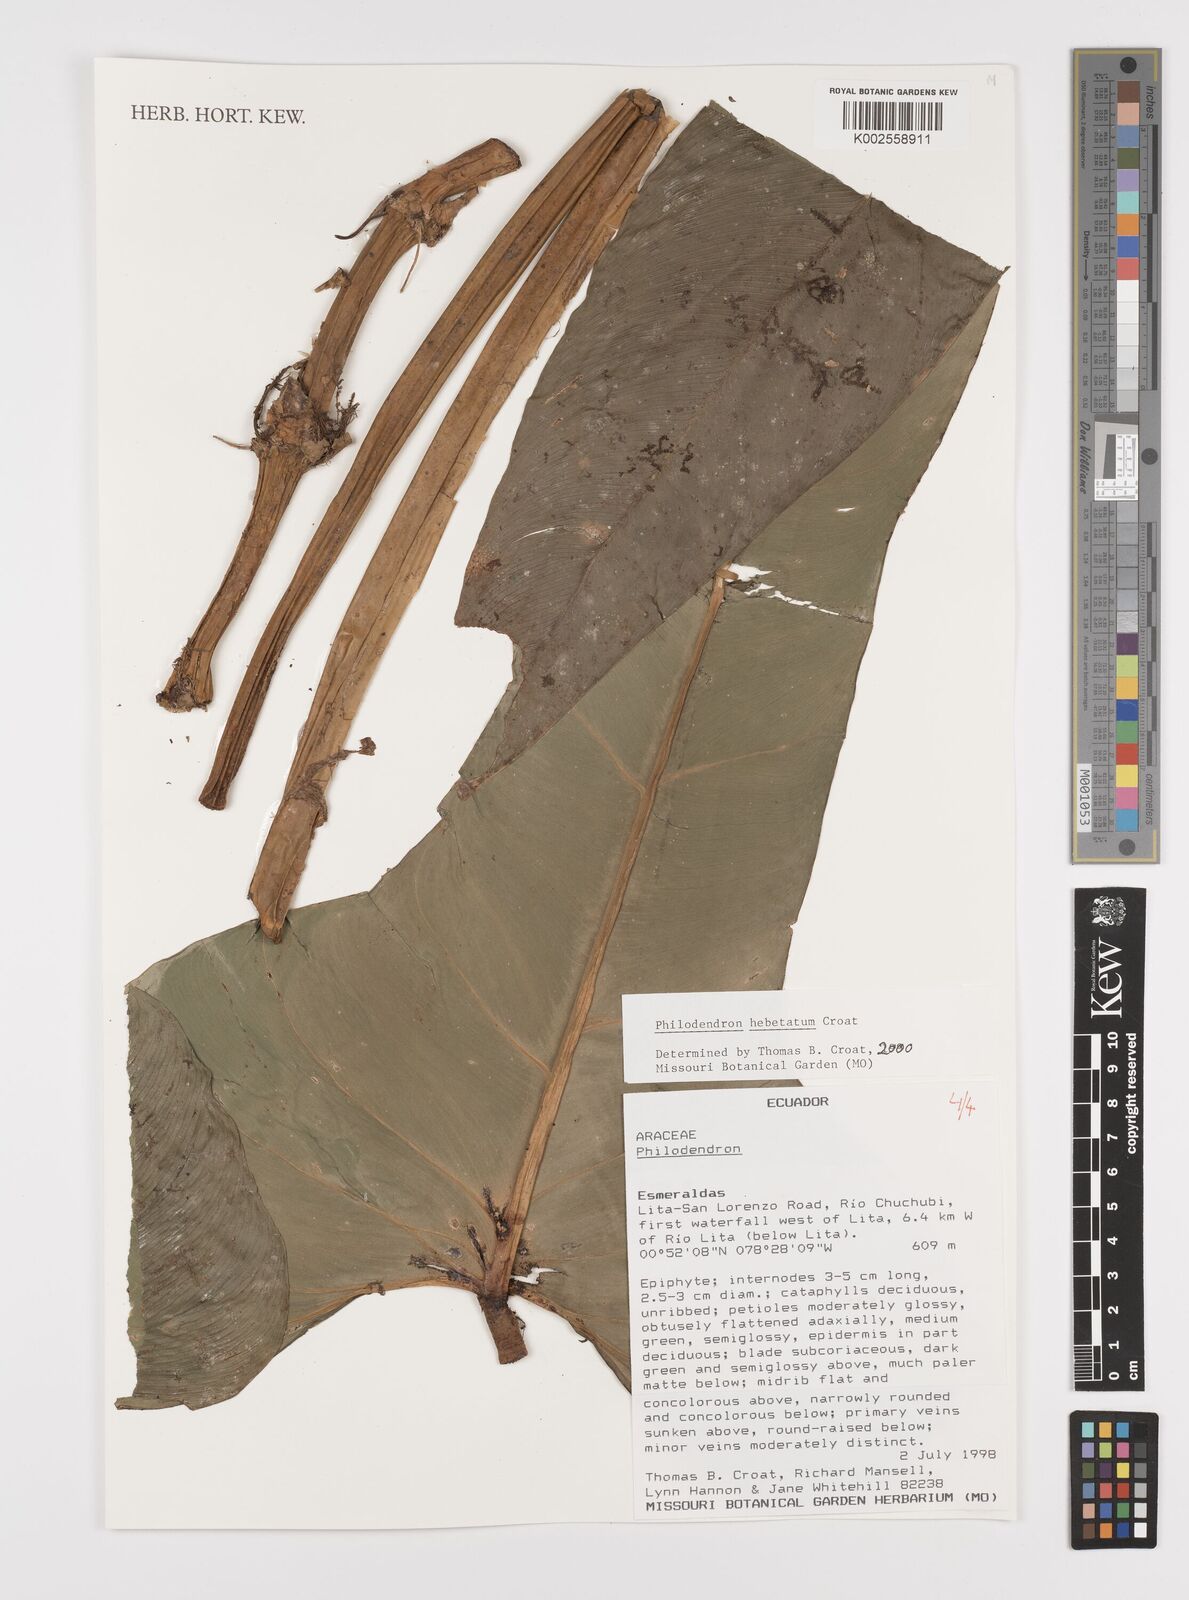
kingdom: Plantae
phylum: Tracheophyta
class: Liliopsida
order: Alismatales
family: Araceae
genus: Philodendron
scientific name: Philodendron hebetatum
